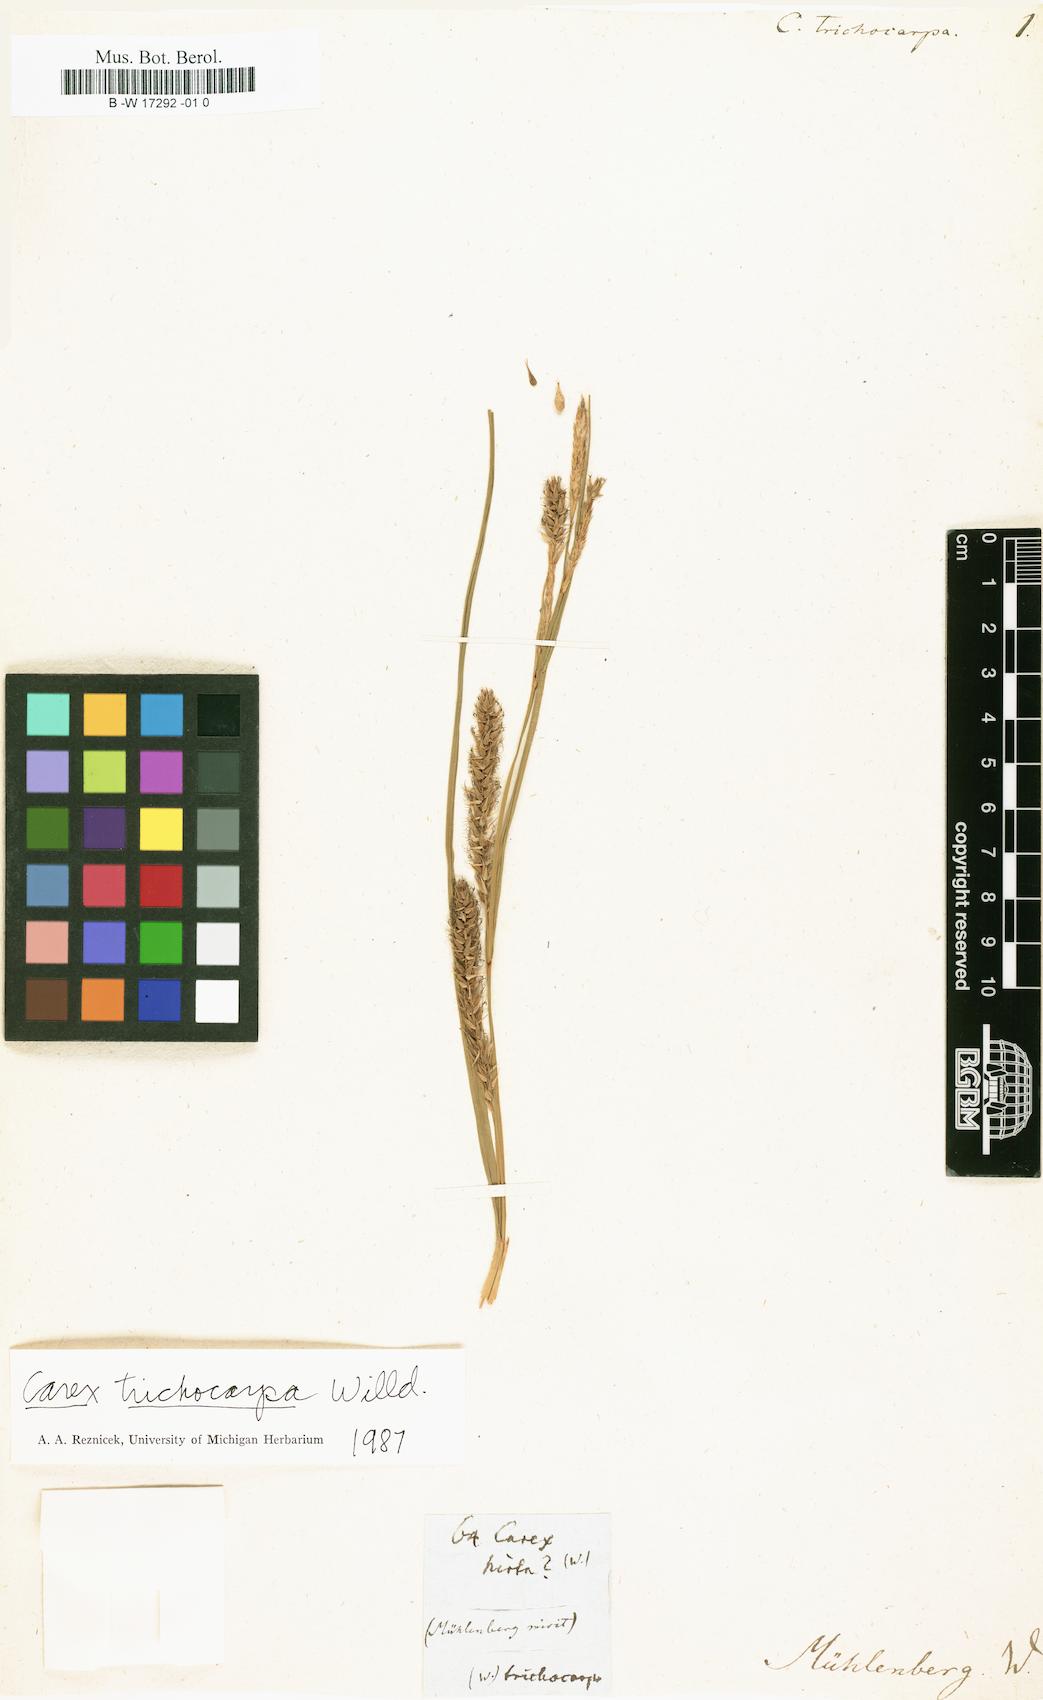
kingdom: Plantae
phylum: Tracheophyta
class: Liliopsida
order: Poales
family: Cyperaceae
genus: Carex
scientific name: Carex trichocarpa
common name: Hairy-fruited lake sedge
